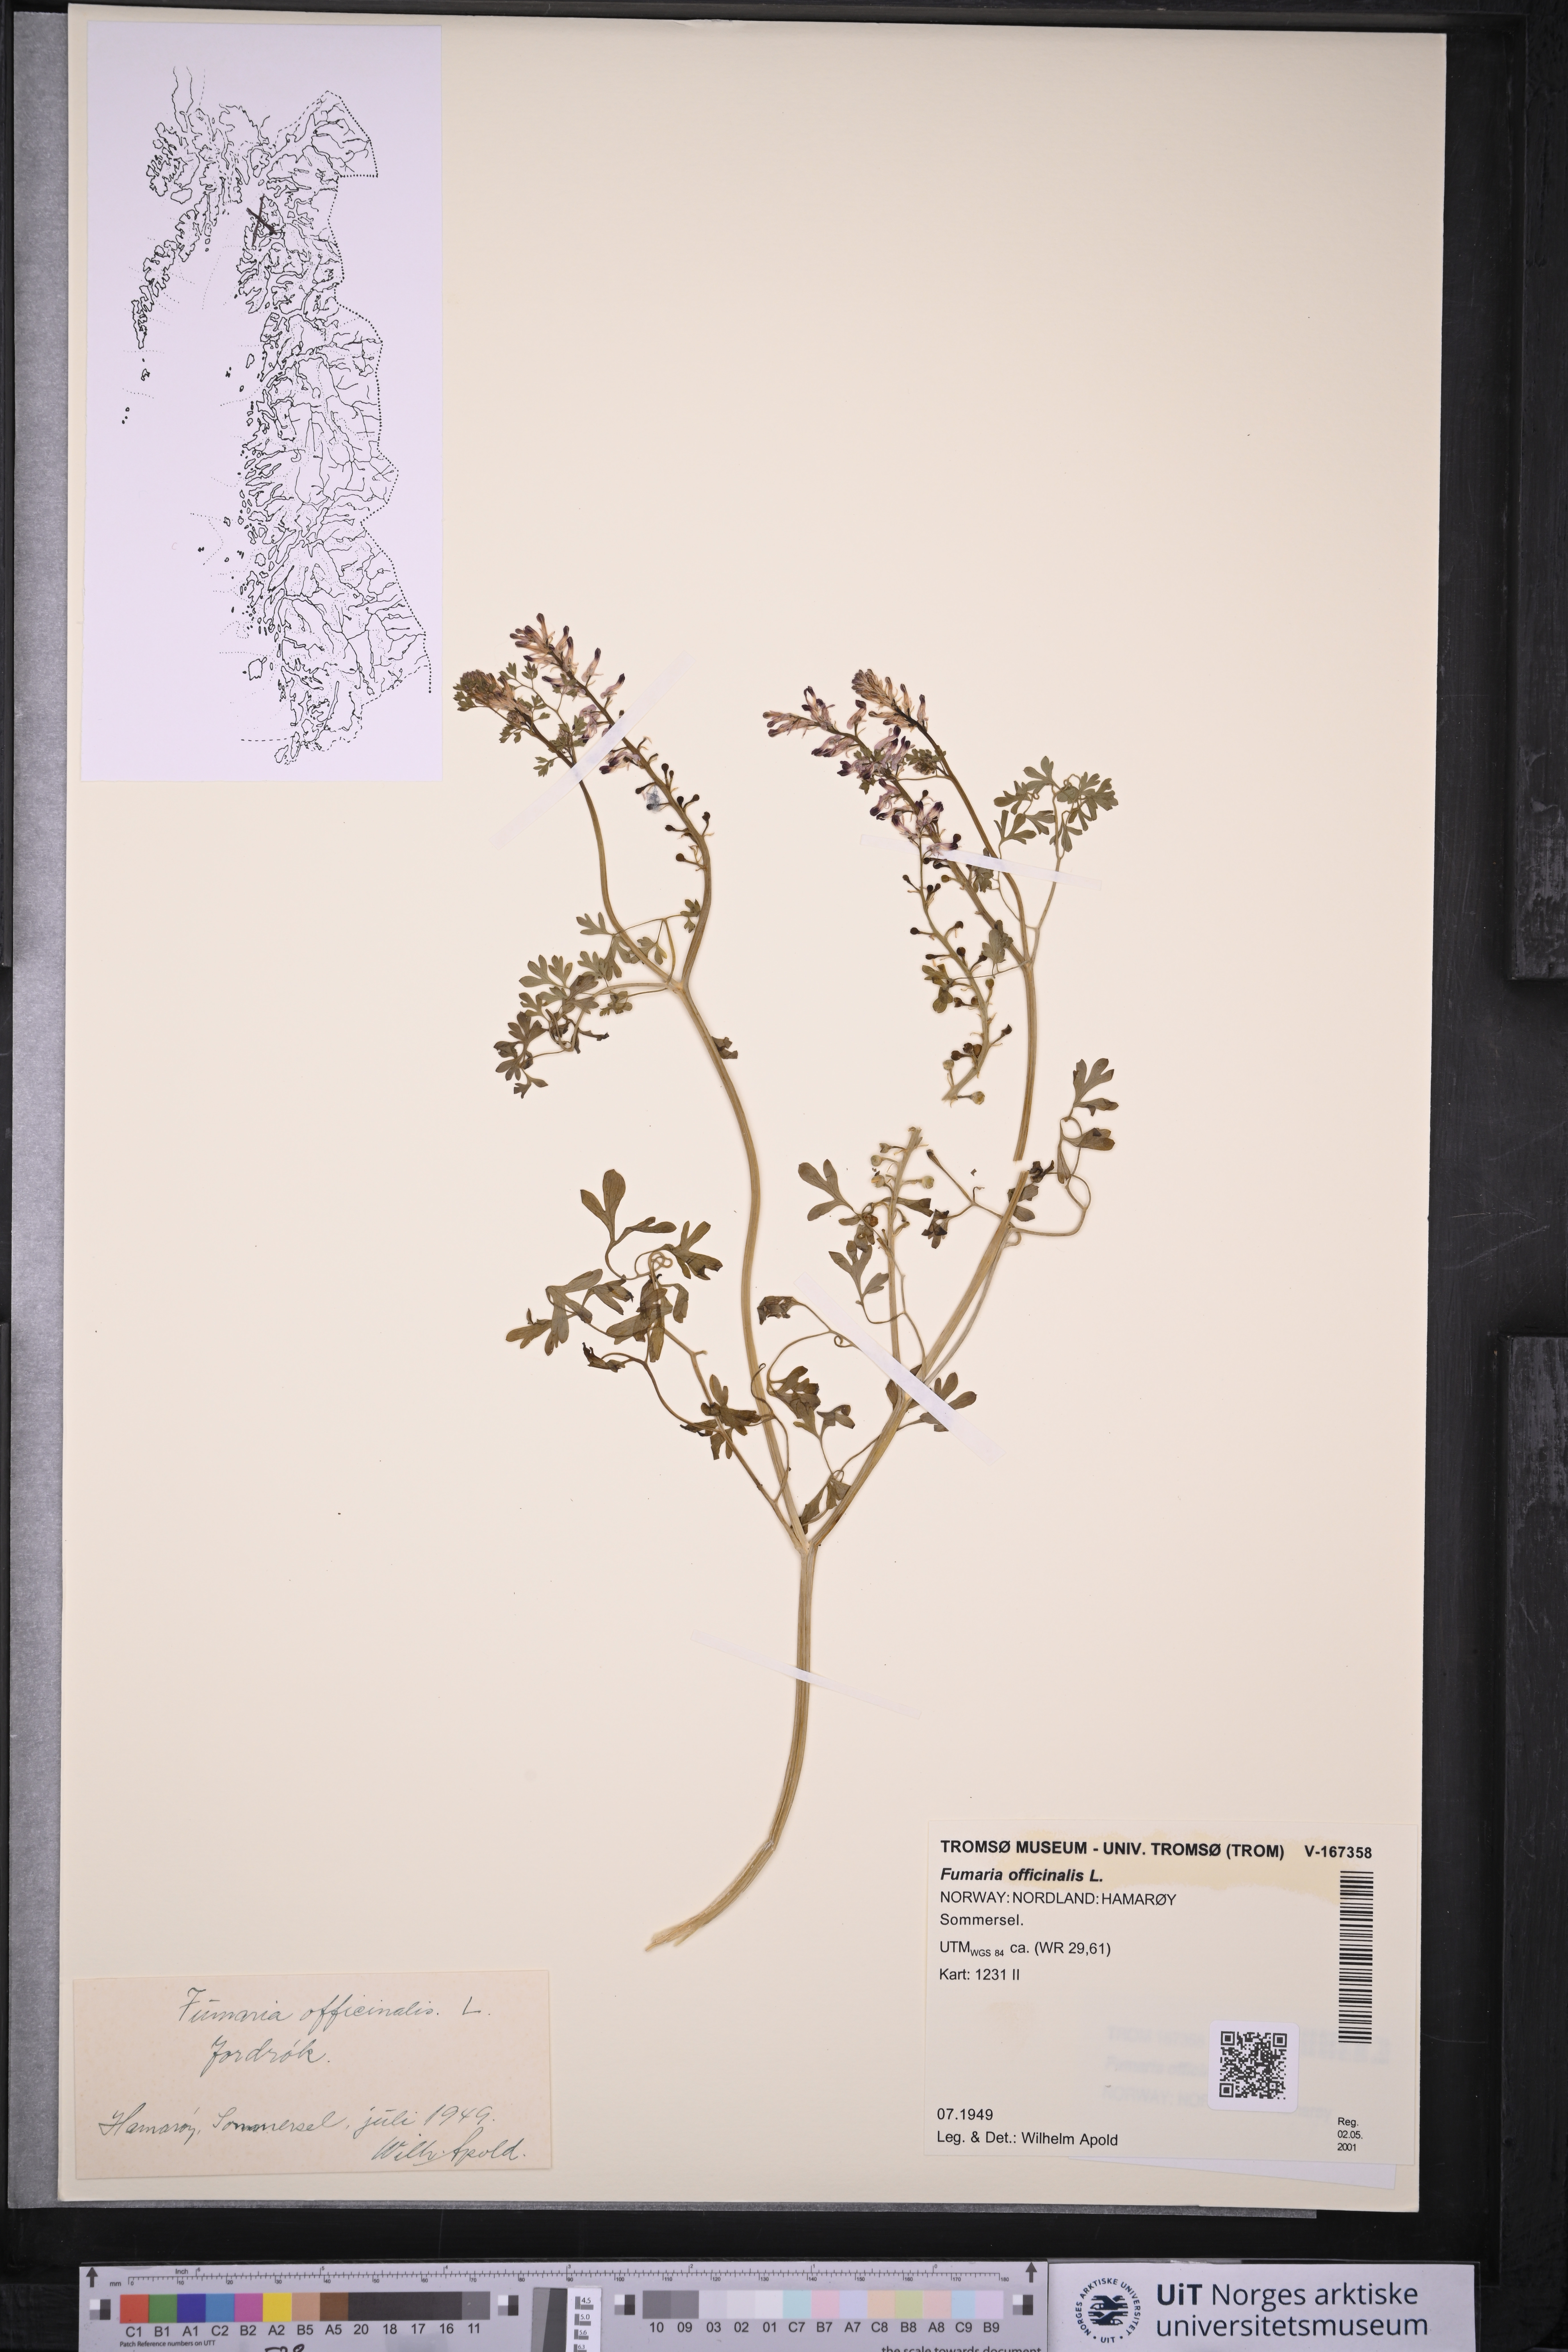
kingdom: Plantae
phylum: Tracheophyta
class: Magnoliopsida
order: Ranunculales
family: Papaveraceae
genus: Fumaria
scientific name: Fumaria officinalis
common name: Common fumitory
